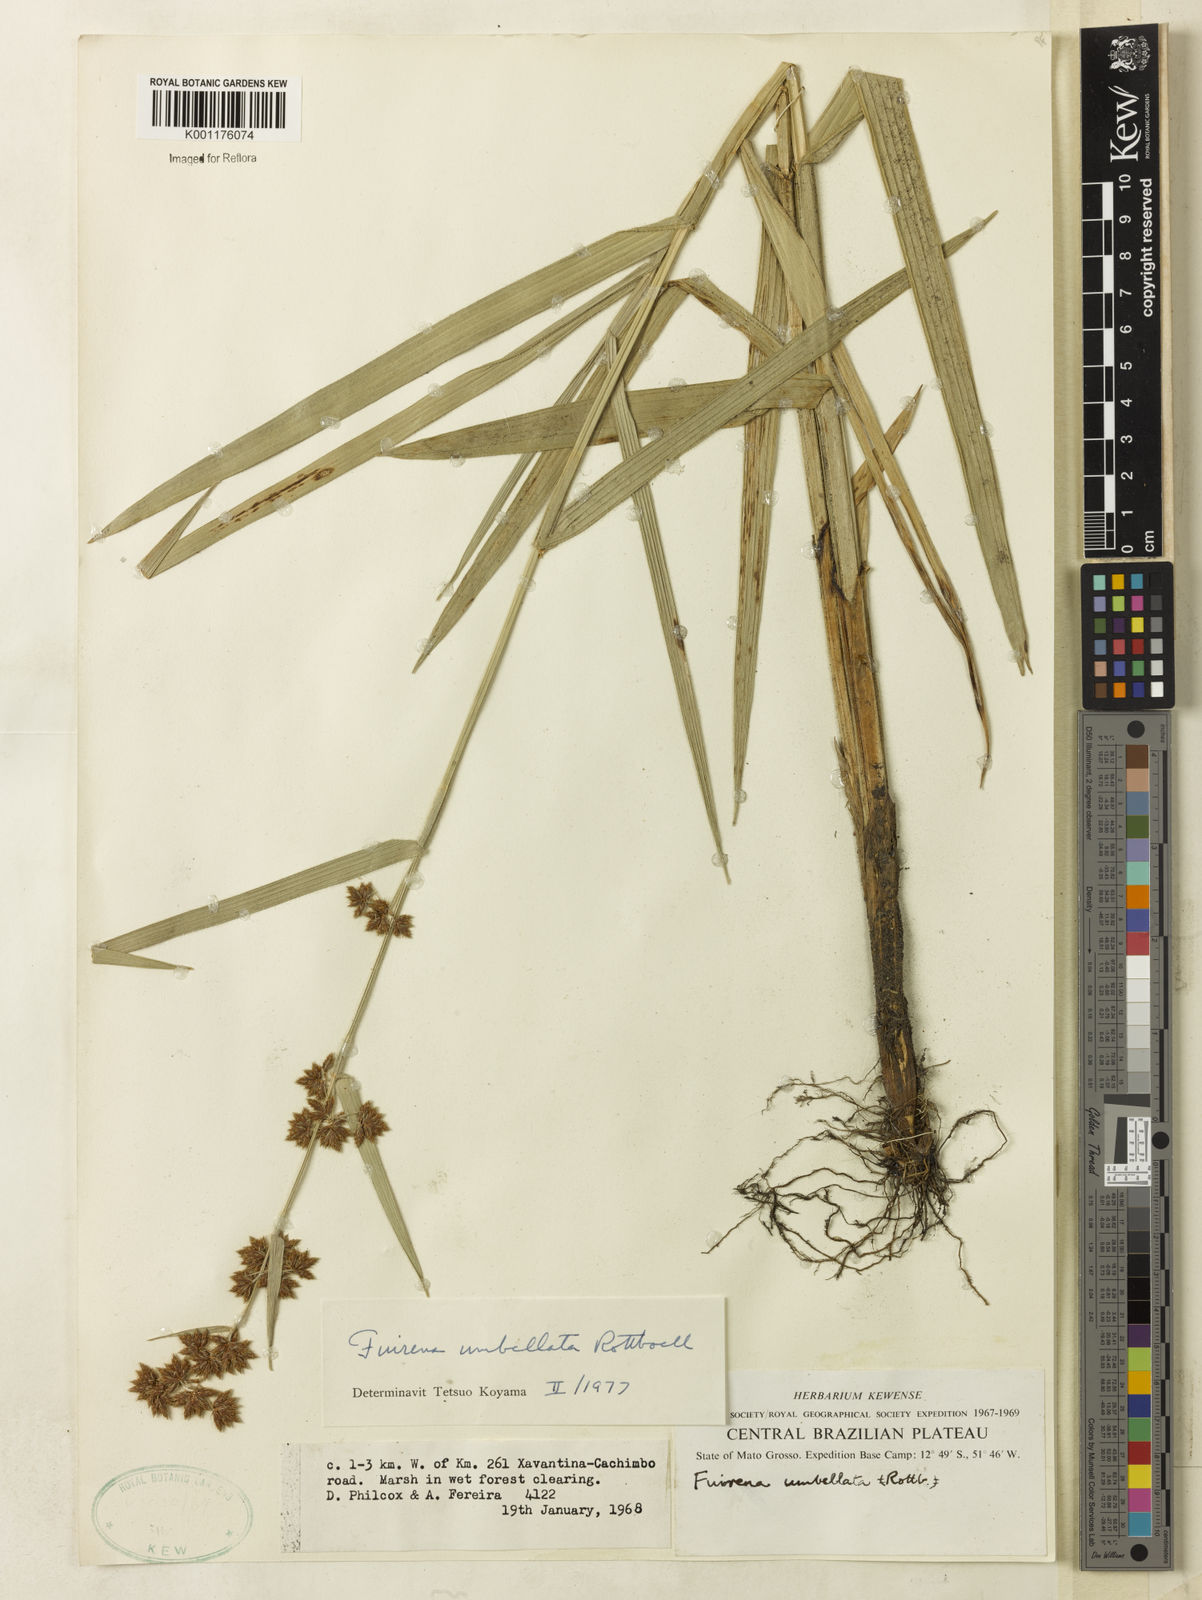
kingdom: Plantae
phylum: Tracheophyta
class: Liliopsida
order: Poales
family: Cyperaceae
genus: Fuirena
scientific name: Fuirena umbellata
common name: Yefen
